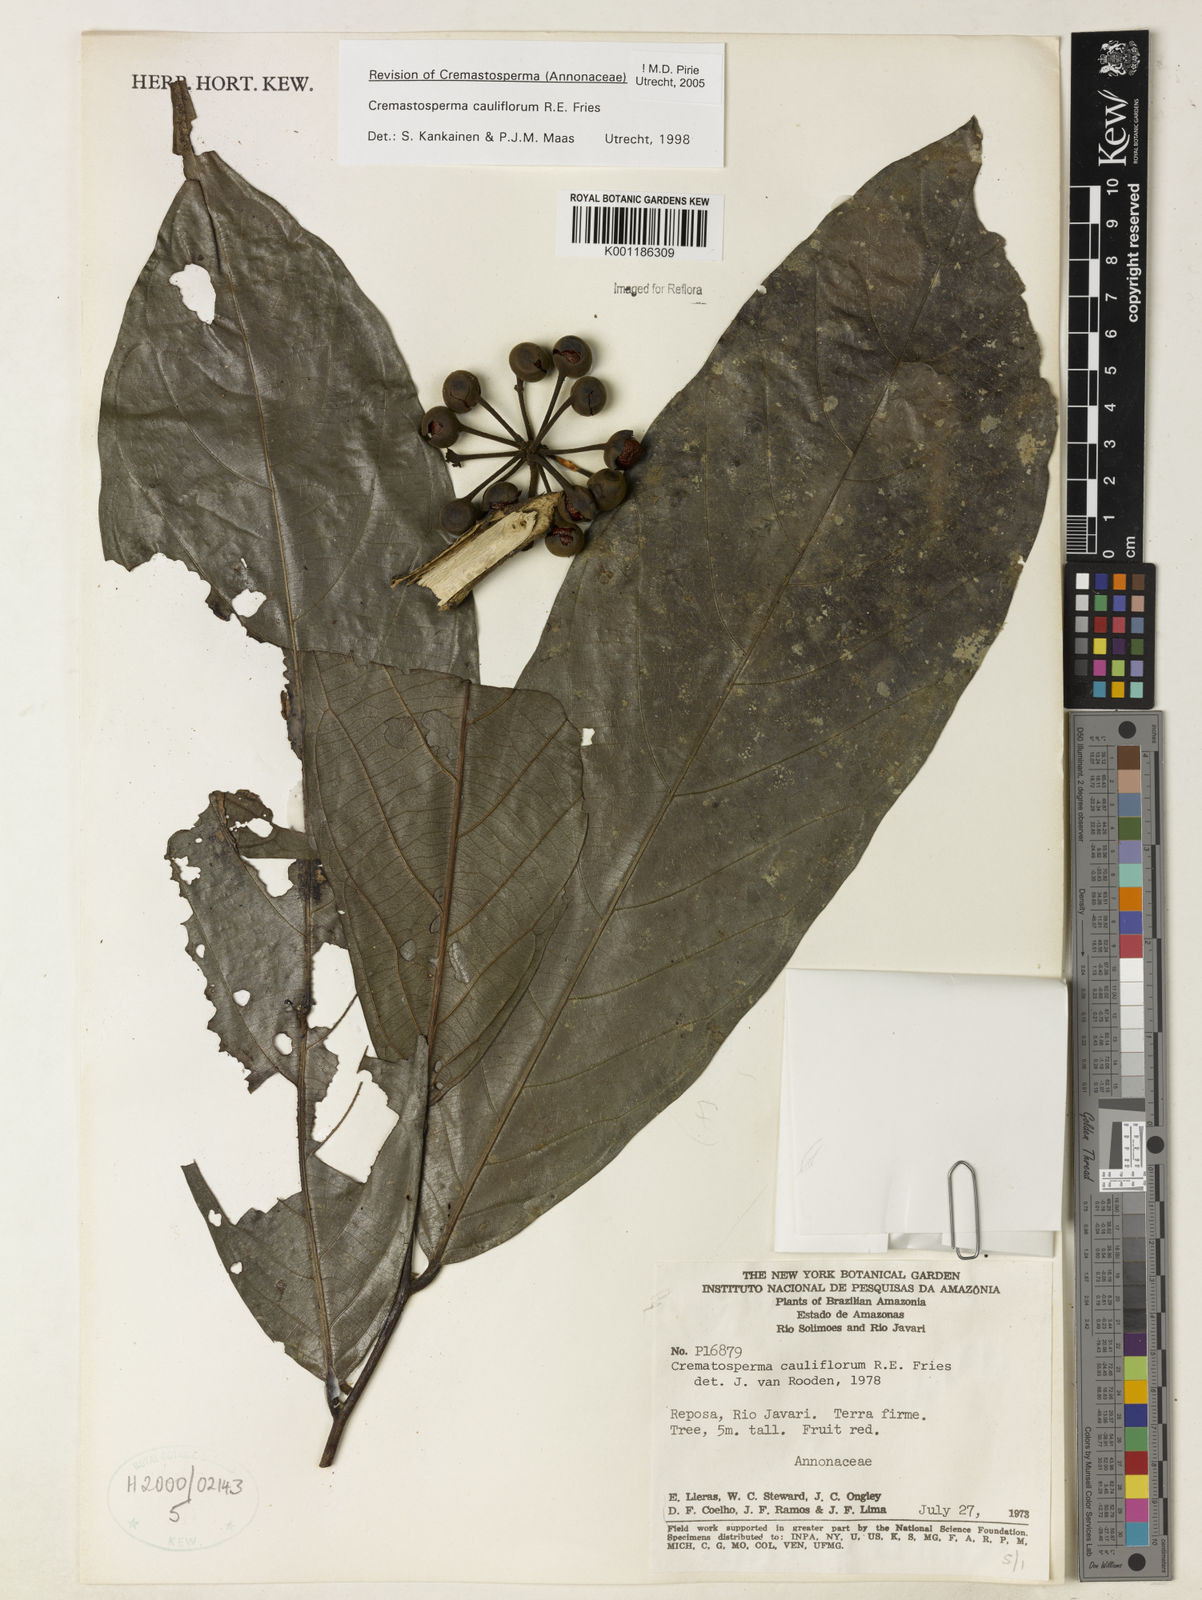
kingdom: Plantae
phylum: Tracheophyta
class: Magnoliopsida
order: Magnoliales
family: Annonaceae
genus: Cremastosperma
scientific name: Cremastosperma cauliflorum
